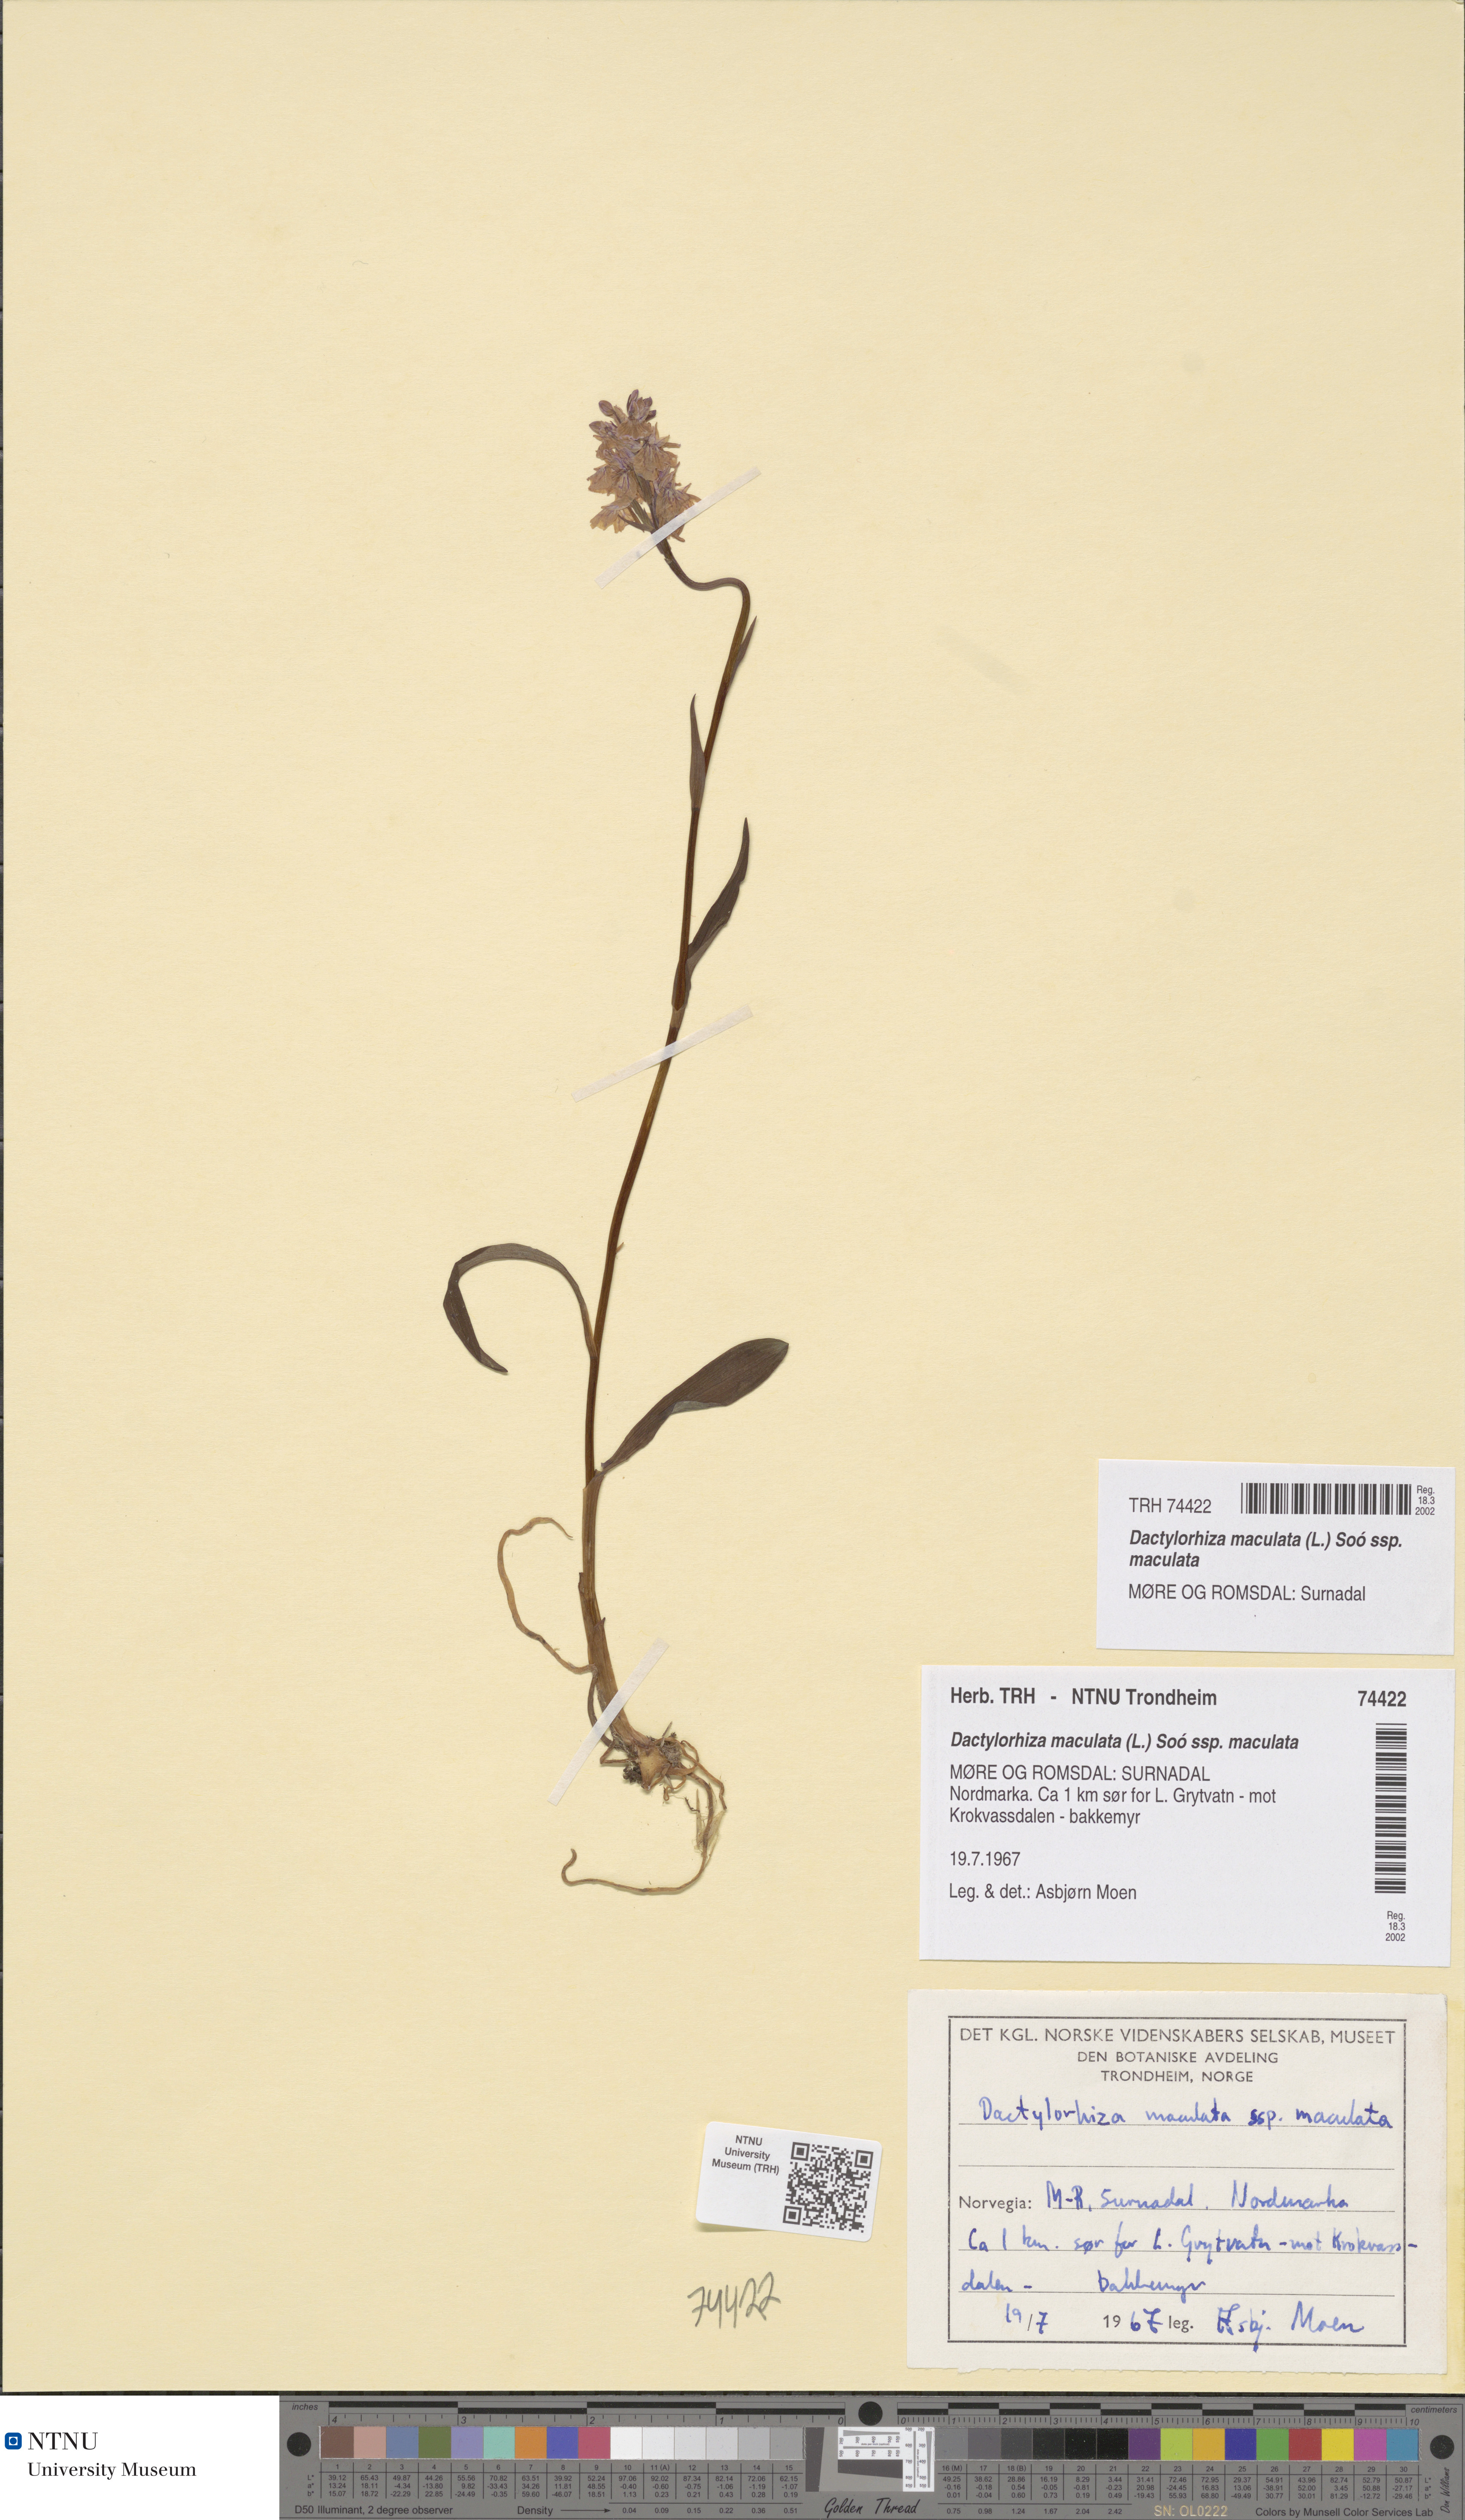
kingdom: Plantae
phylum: Tracheophyta
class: Liliopsida
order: Asparagales
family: Orchidaceae
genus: Dactylorhiza
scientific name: Dactylorhiza maculata
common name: Heath spotted-orchid
